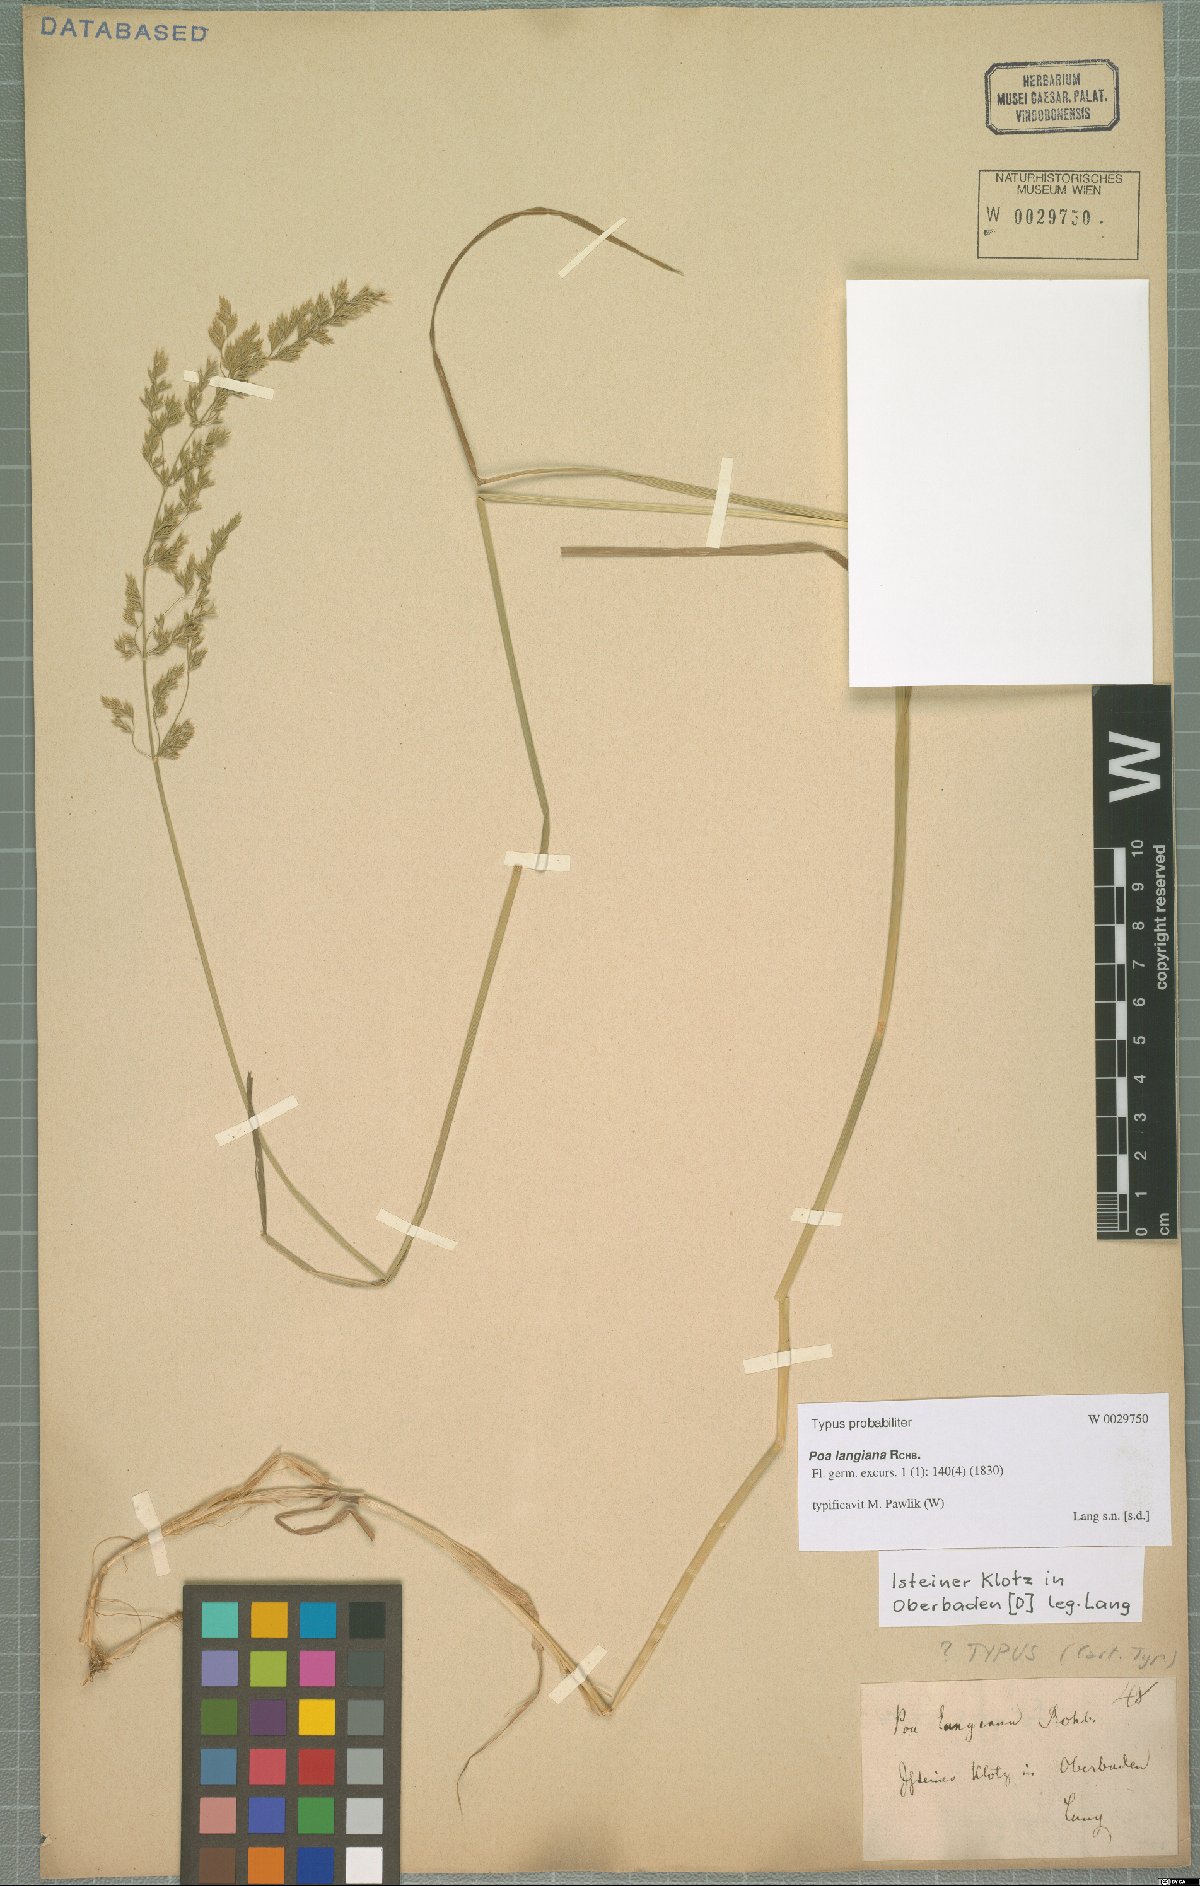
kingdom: Plantae
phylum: Tracheophyta
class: Liliopsida
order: Poales
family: Poaceae
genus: Poa
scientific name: Poa compressa
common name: Canada bluegrass
